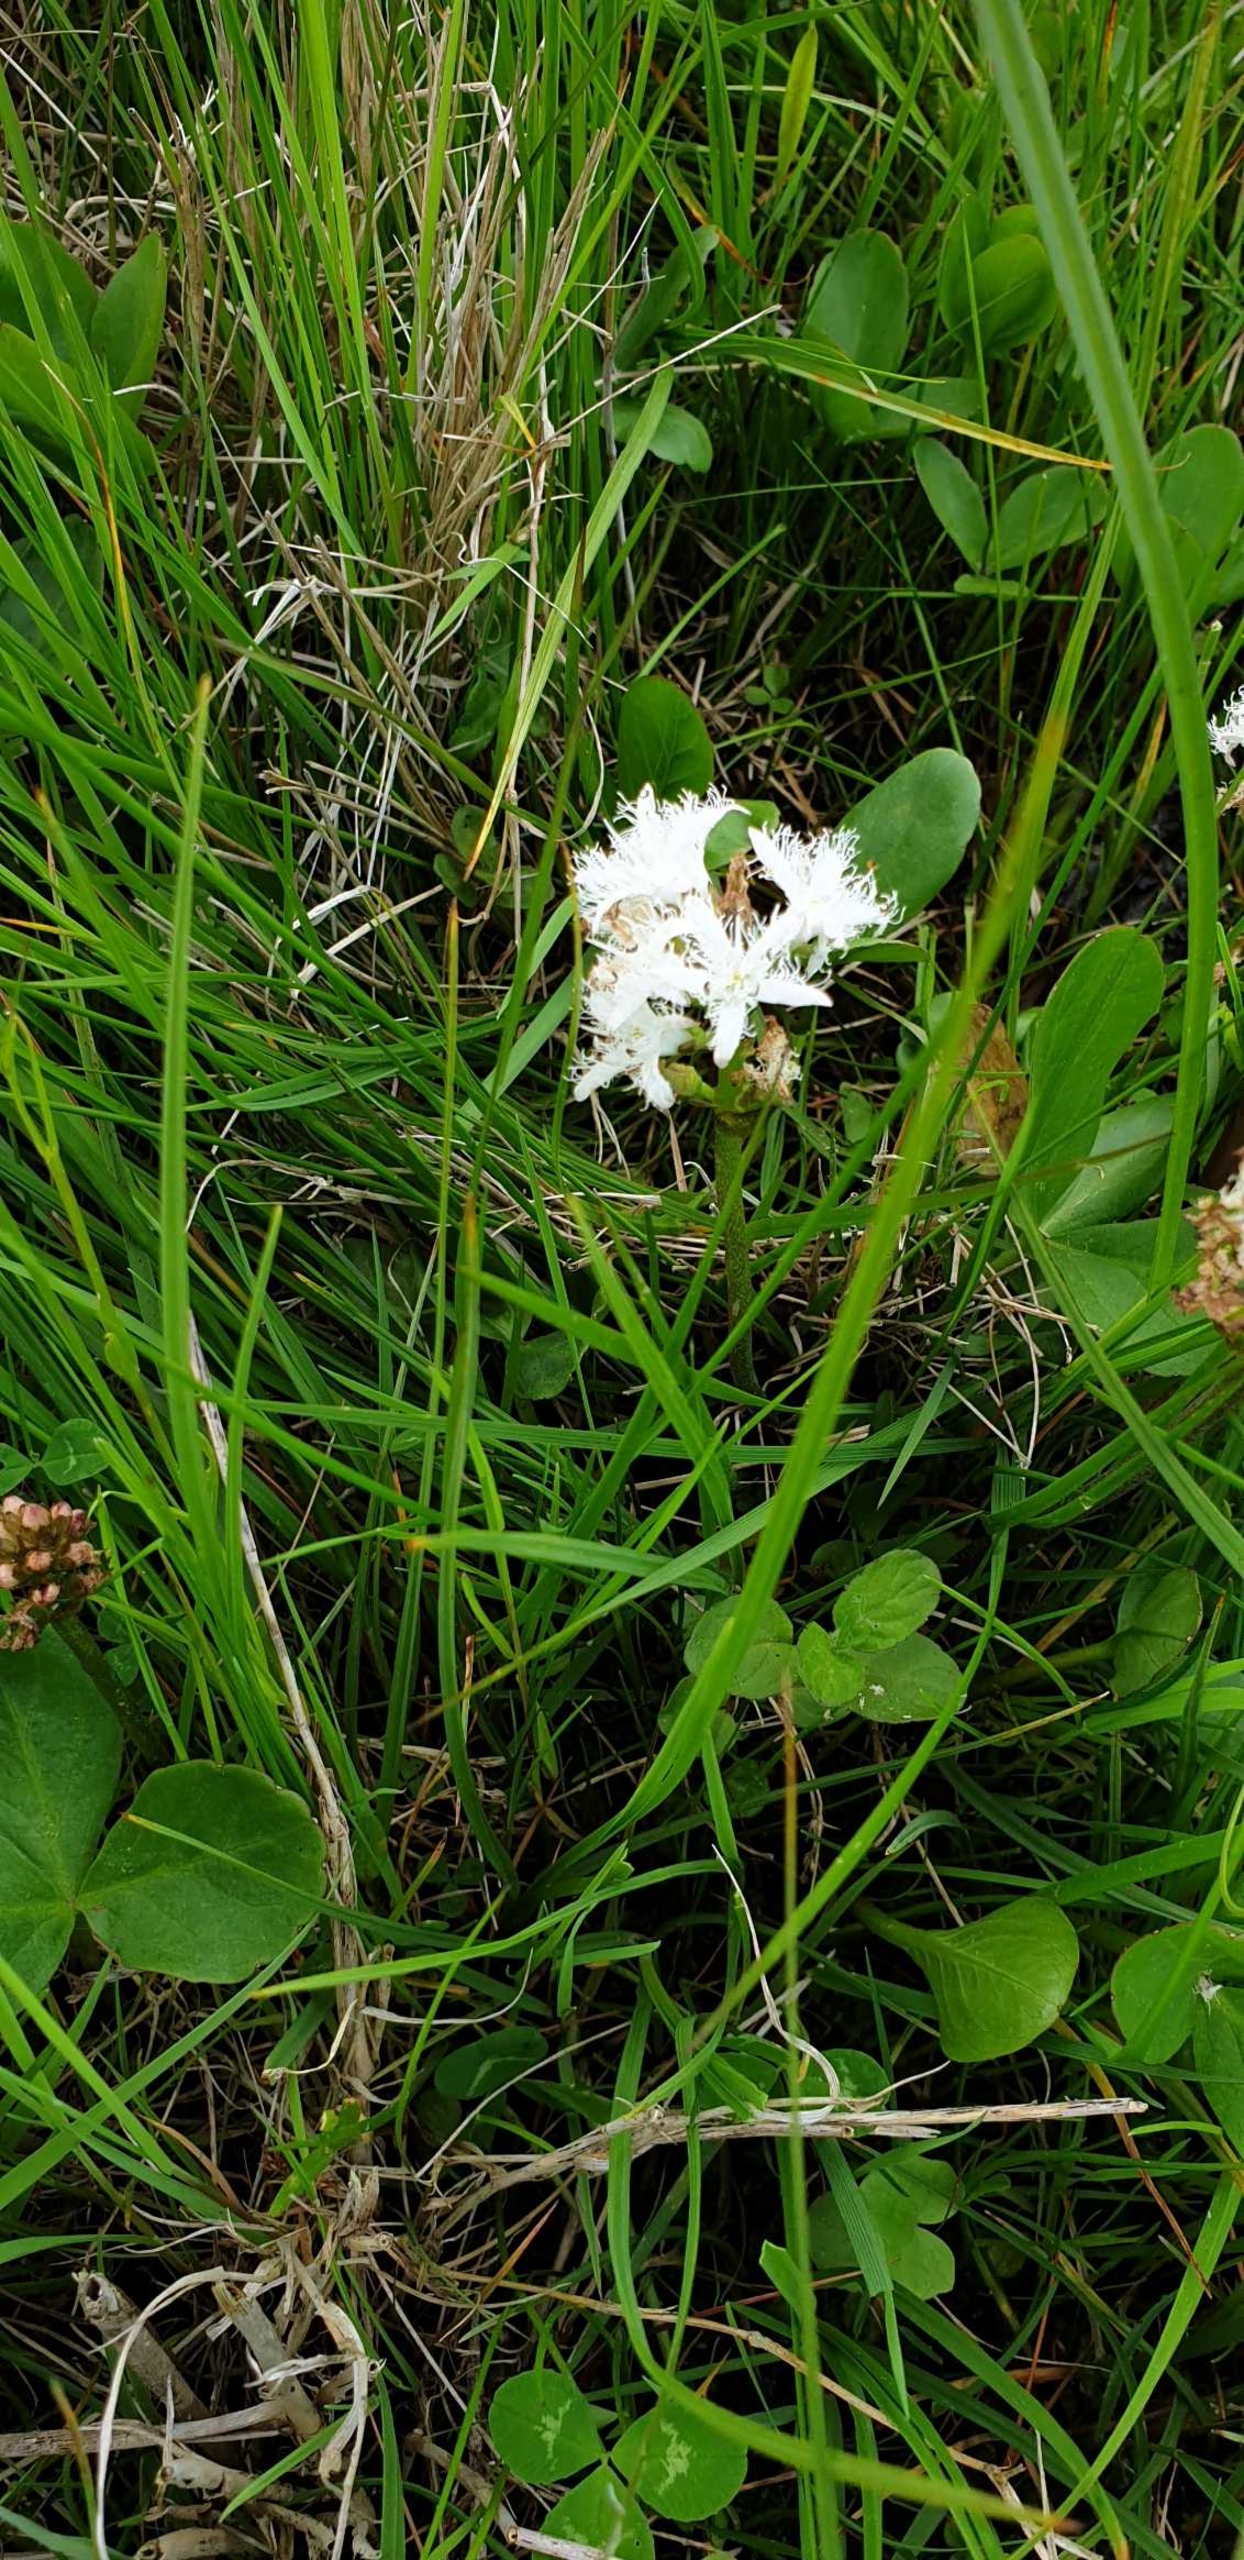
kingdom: Plantae
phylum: Tracheophyta
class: Magnoliopsida
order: Asterales
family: Menyanthaceae
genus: Menyanthes
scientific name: Menyanthes trifoliata
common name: Bukkeblad
